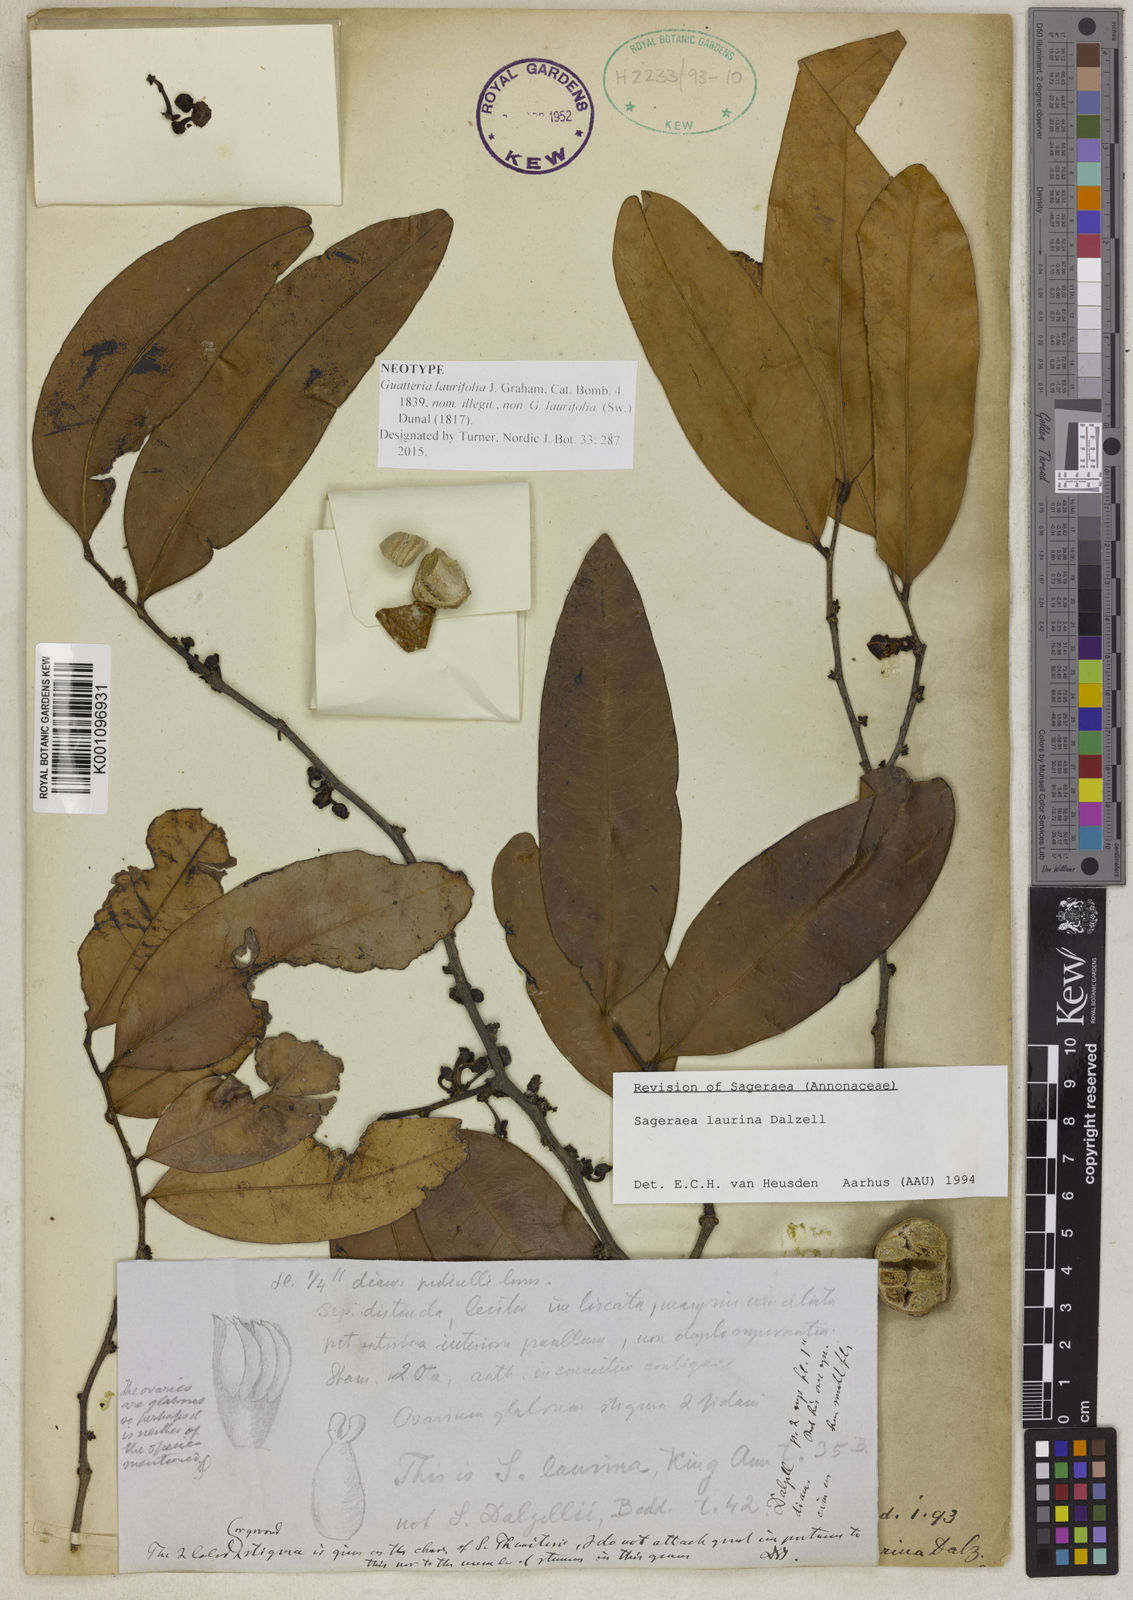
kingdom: Plantae
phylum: Tracheophyta
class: Magnoliopsida
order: Magnoliales
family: Annonaceae
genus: Sageraea
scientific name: Sageraea laurina
